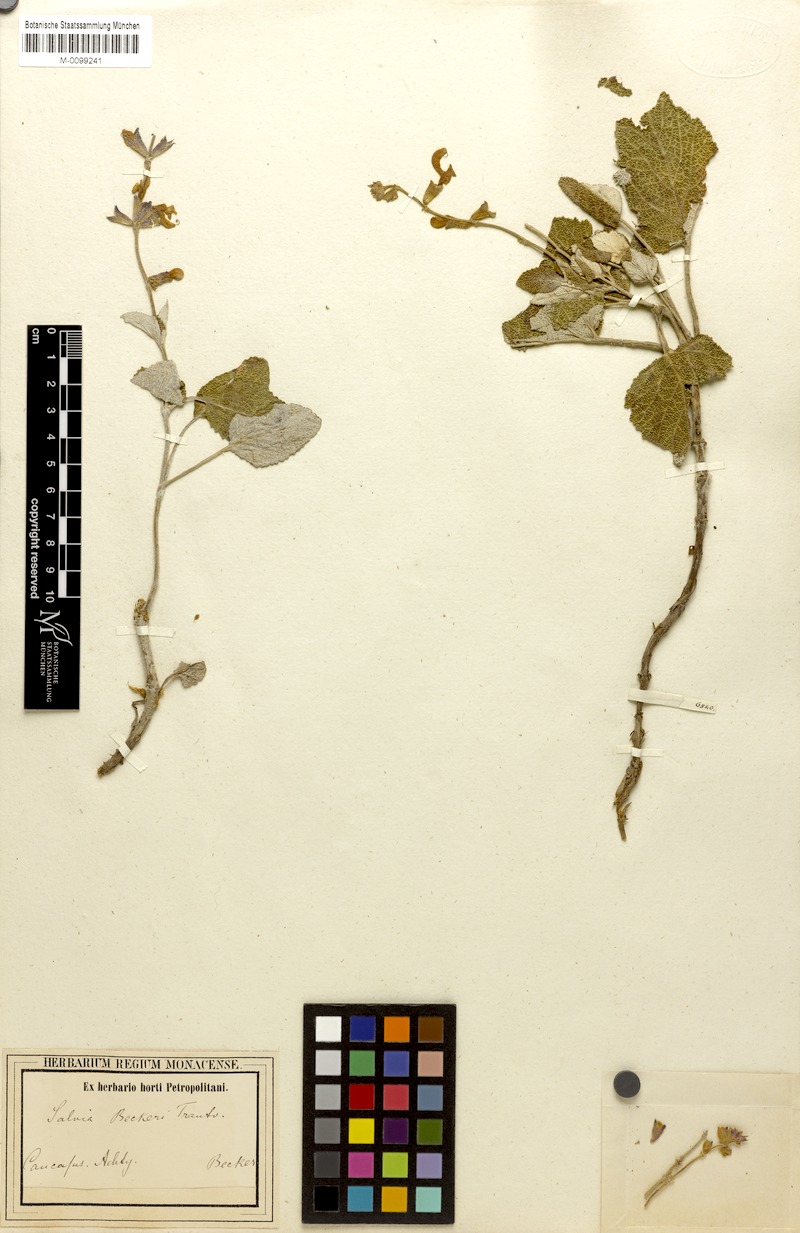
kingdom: Plantae
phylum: Tracheophyta
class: Magnoliopsida
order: Lamiales
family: Lamiaceae
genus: Salvia
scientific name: Salvia beckeri
